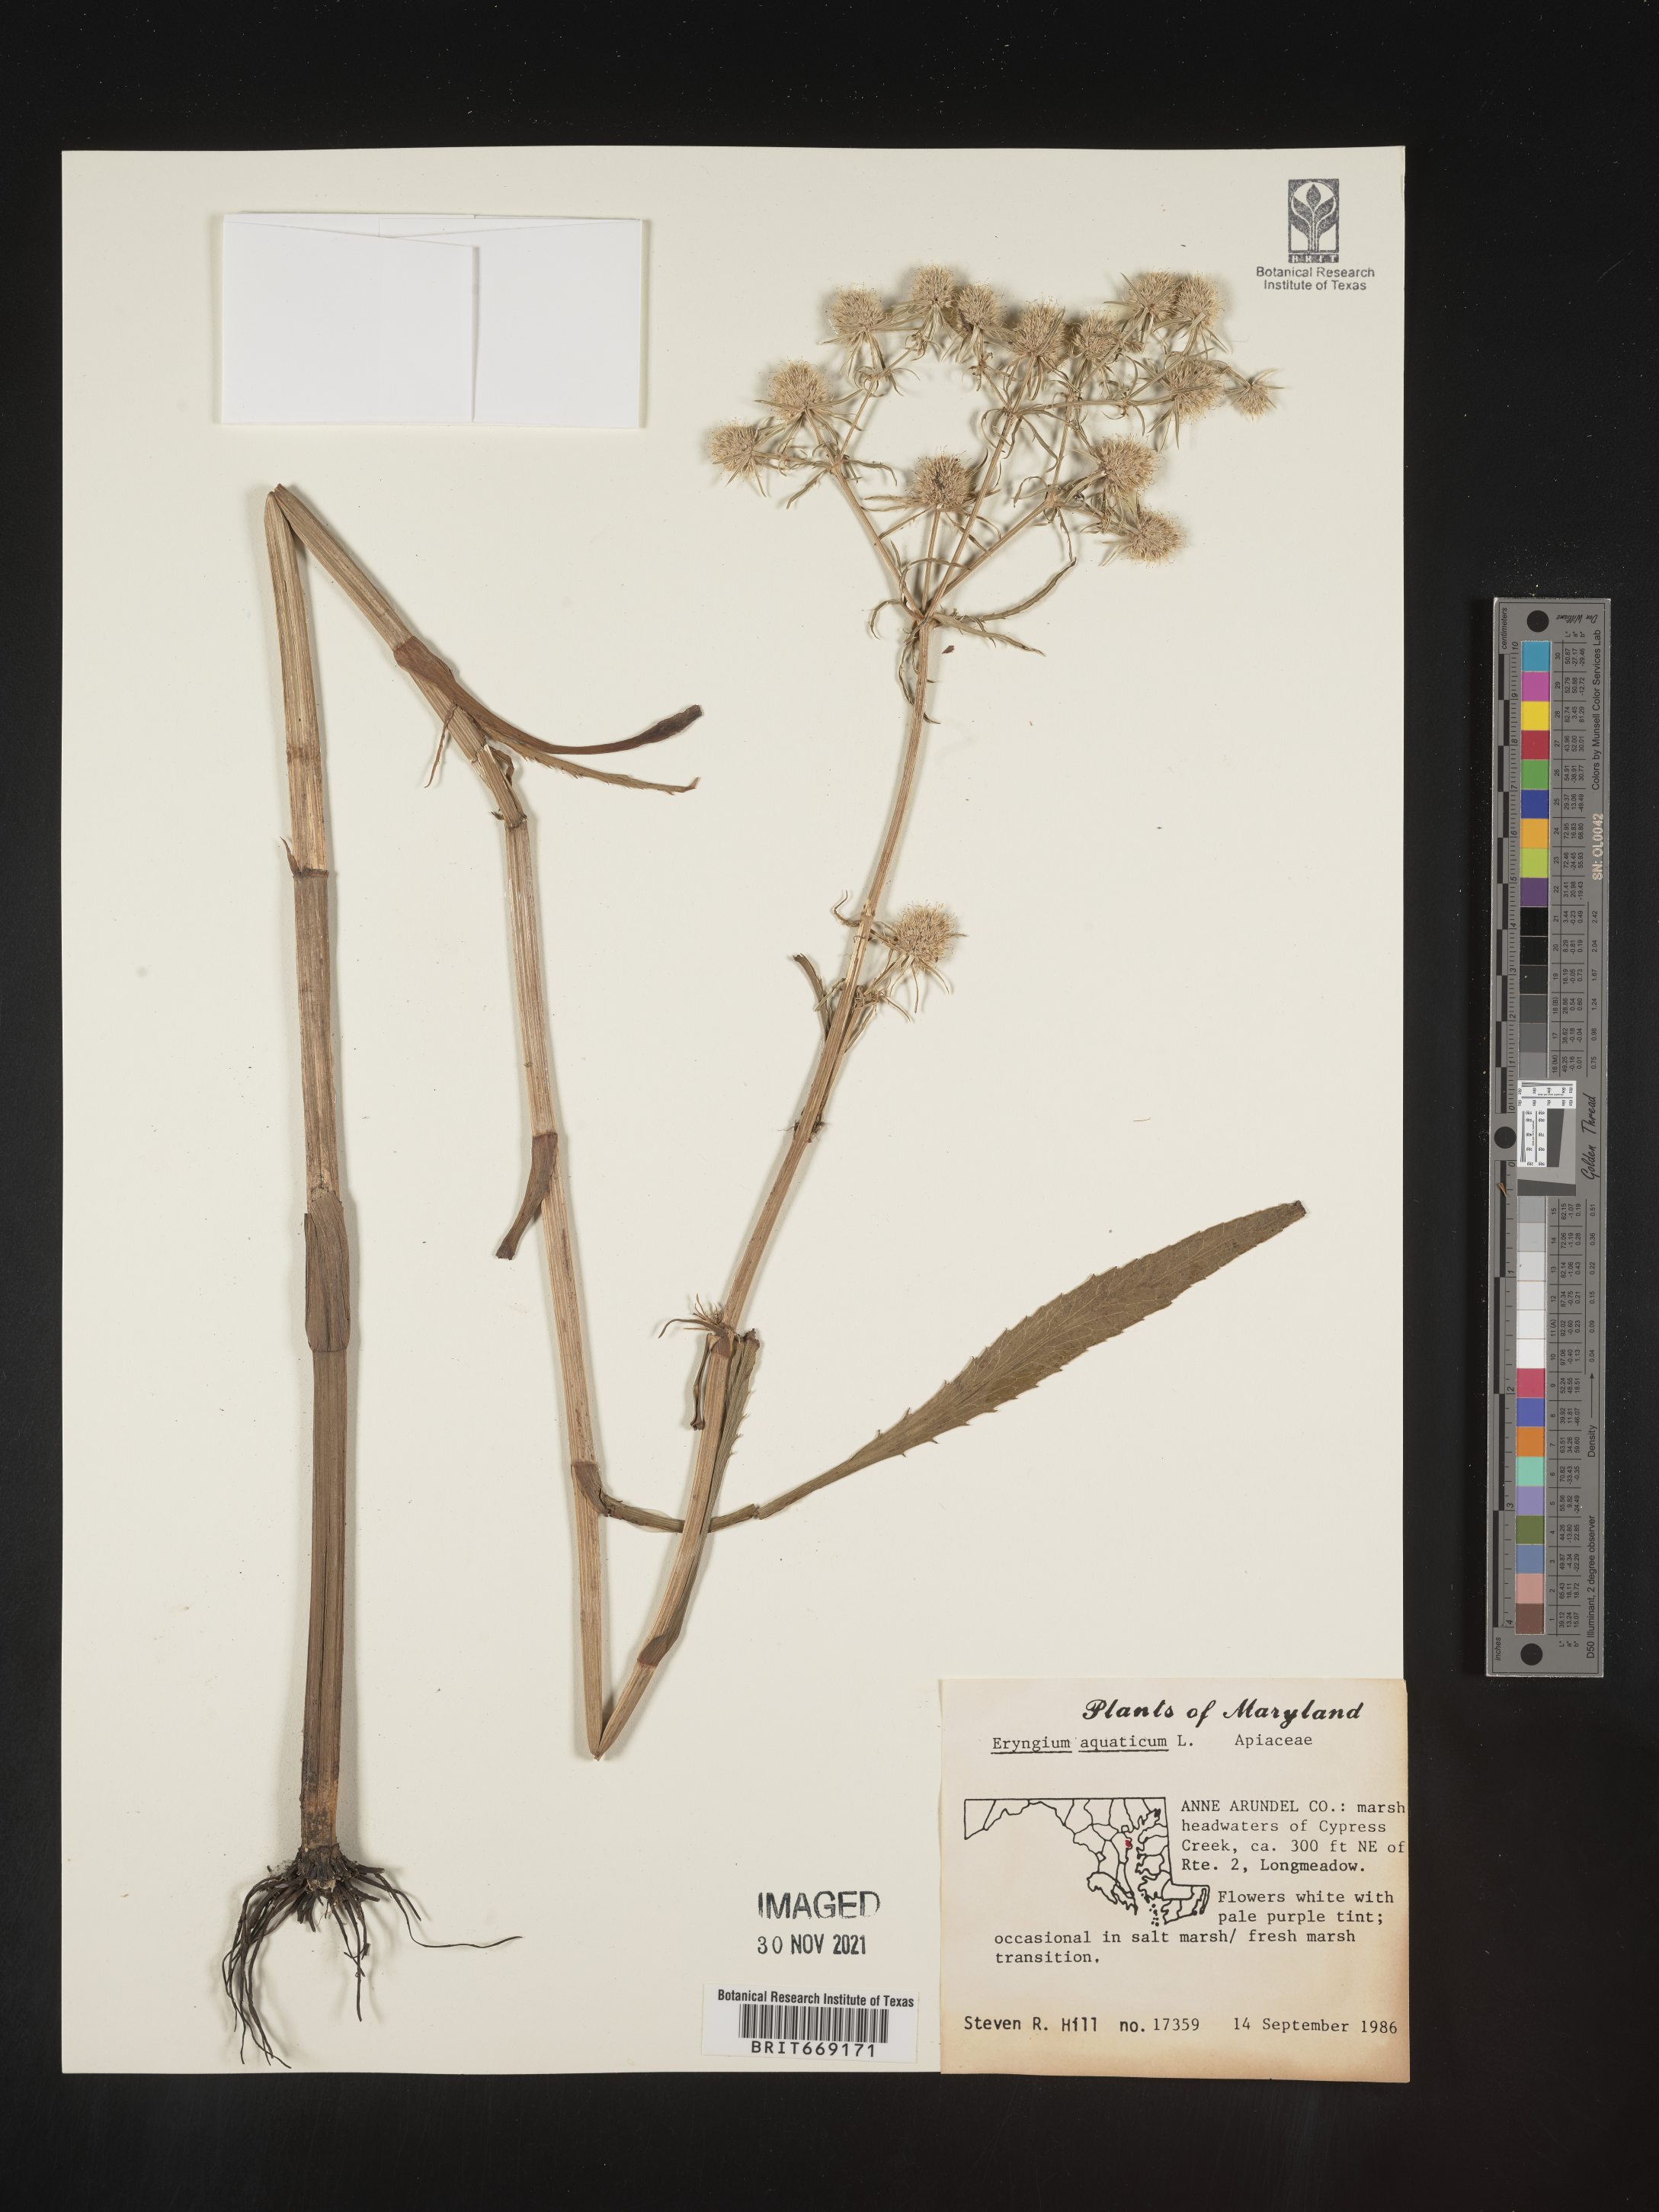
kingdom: Plantae
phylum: Tracheophyta
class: Magnoliopsida
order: Apiales
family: Apiaceae
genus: Eryngium
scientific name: Eryngium aquaticum
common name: Water eryngo
